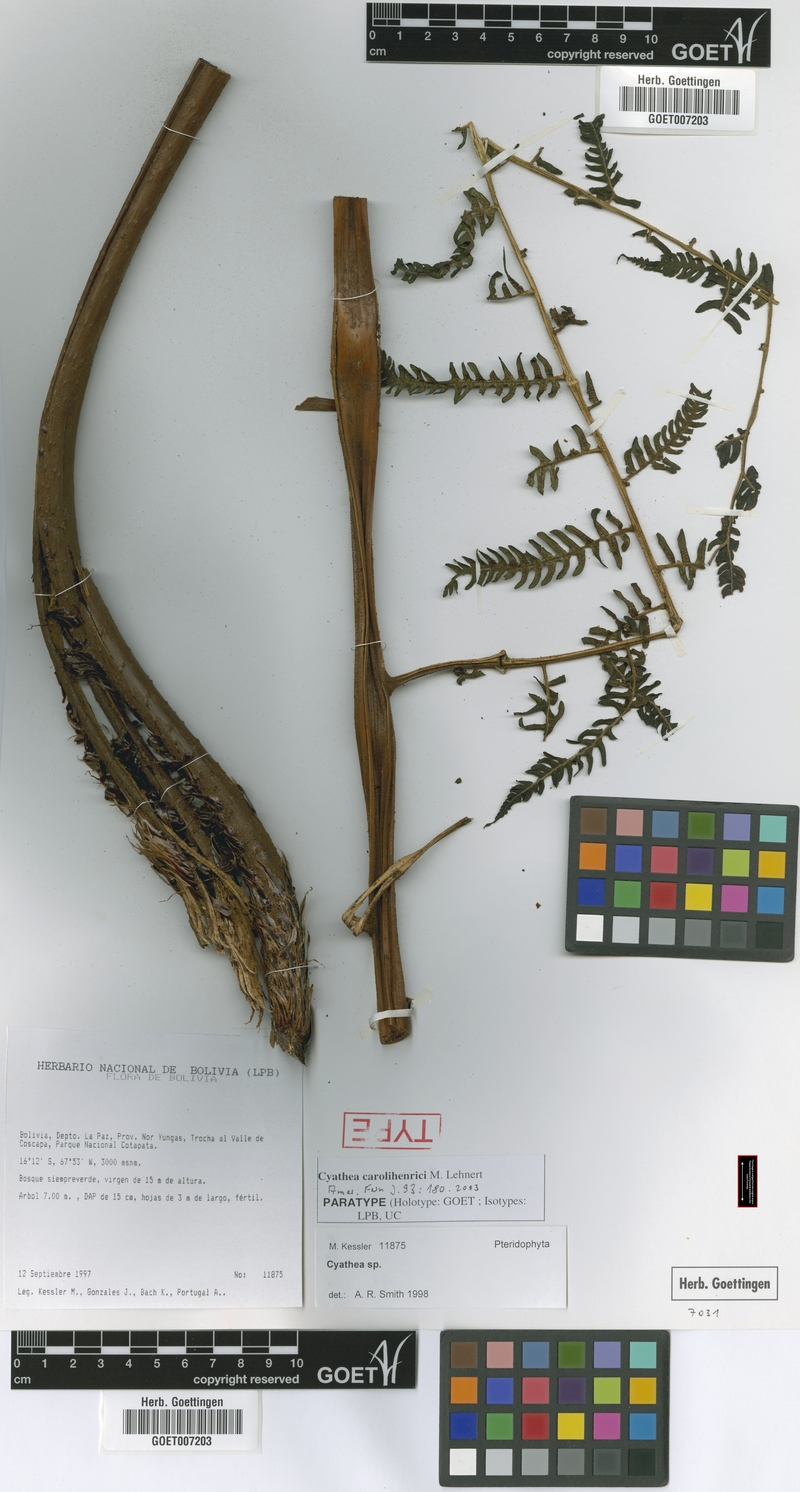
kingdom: Plantae
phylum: Tracheophyta
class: Polypodiopsida
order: Cyatheales
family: Cyatheaceae
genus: Cyathea
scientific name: Cyathea carolihenrici
